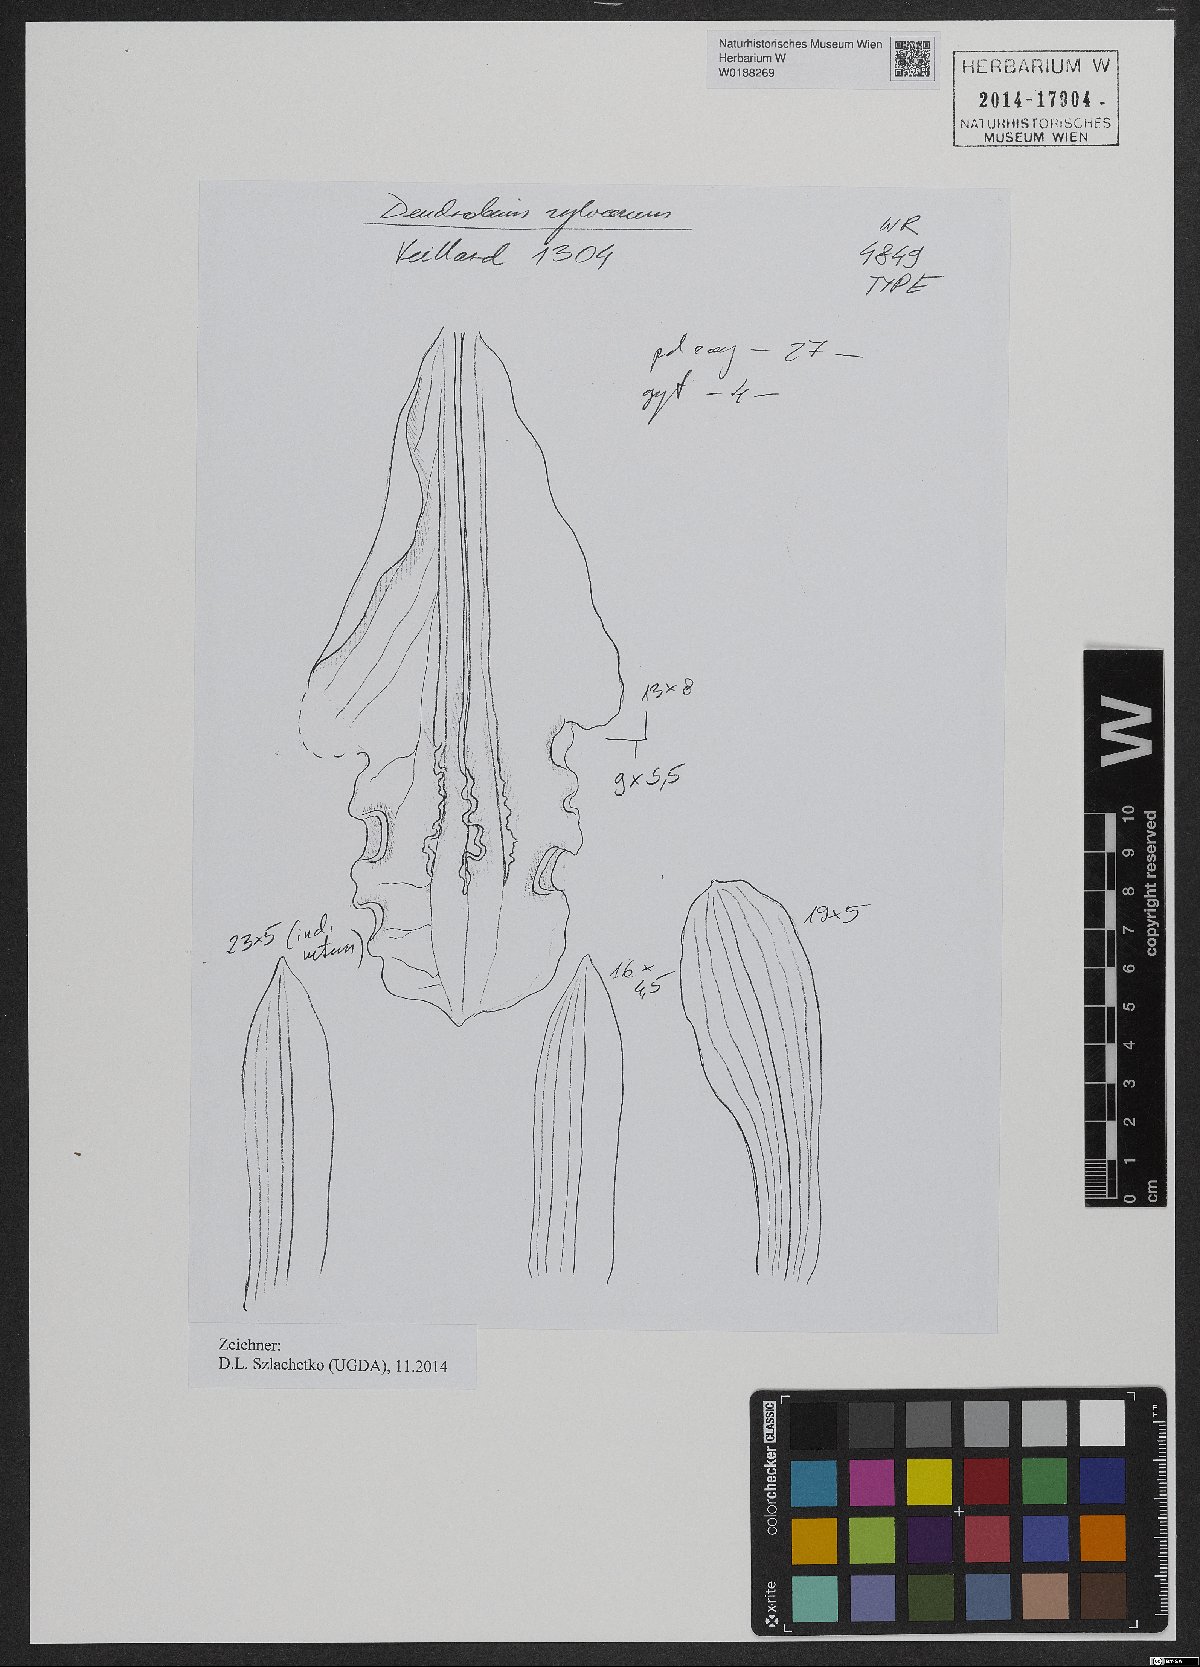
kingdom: Plantae
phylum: Tracheophyta
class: Liliopsida
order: Asparagales
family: Orchidaceae
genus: Dendrobium
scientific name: Dendrobium sylvanum
